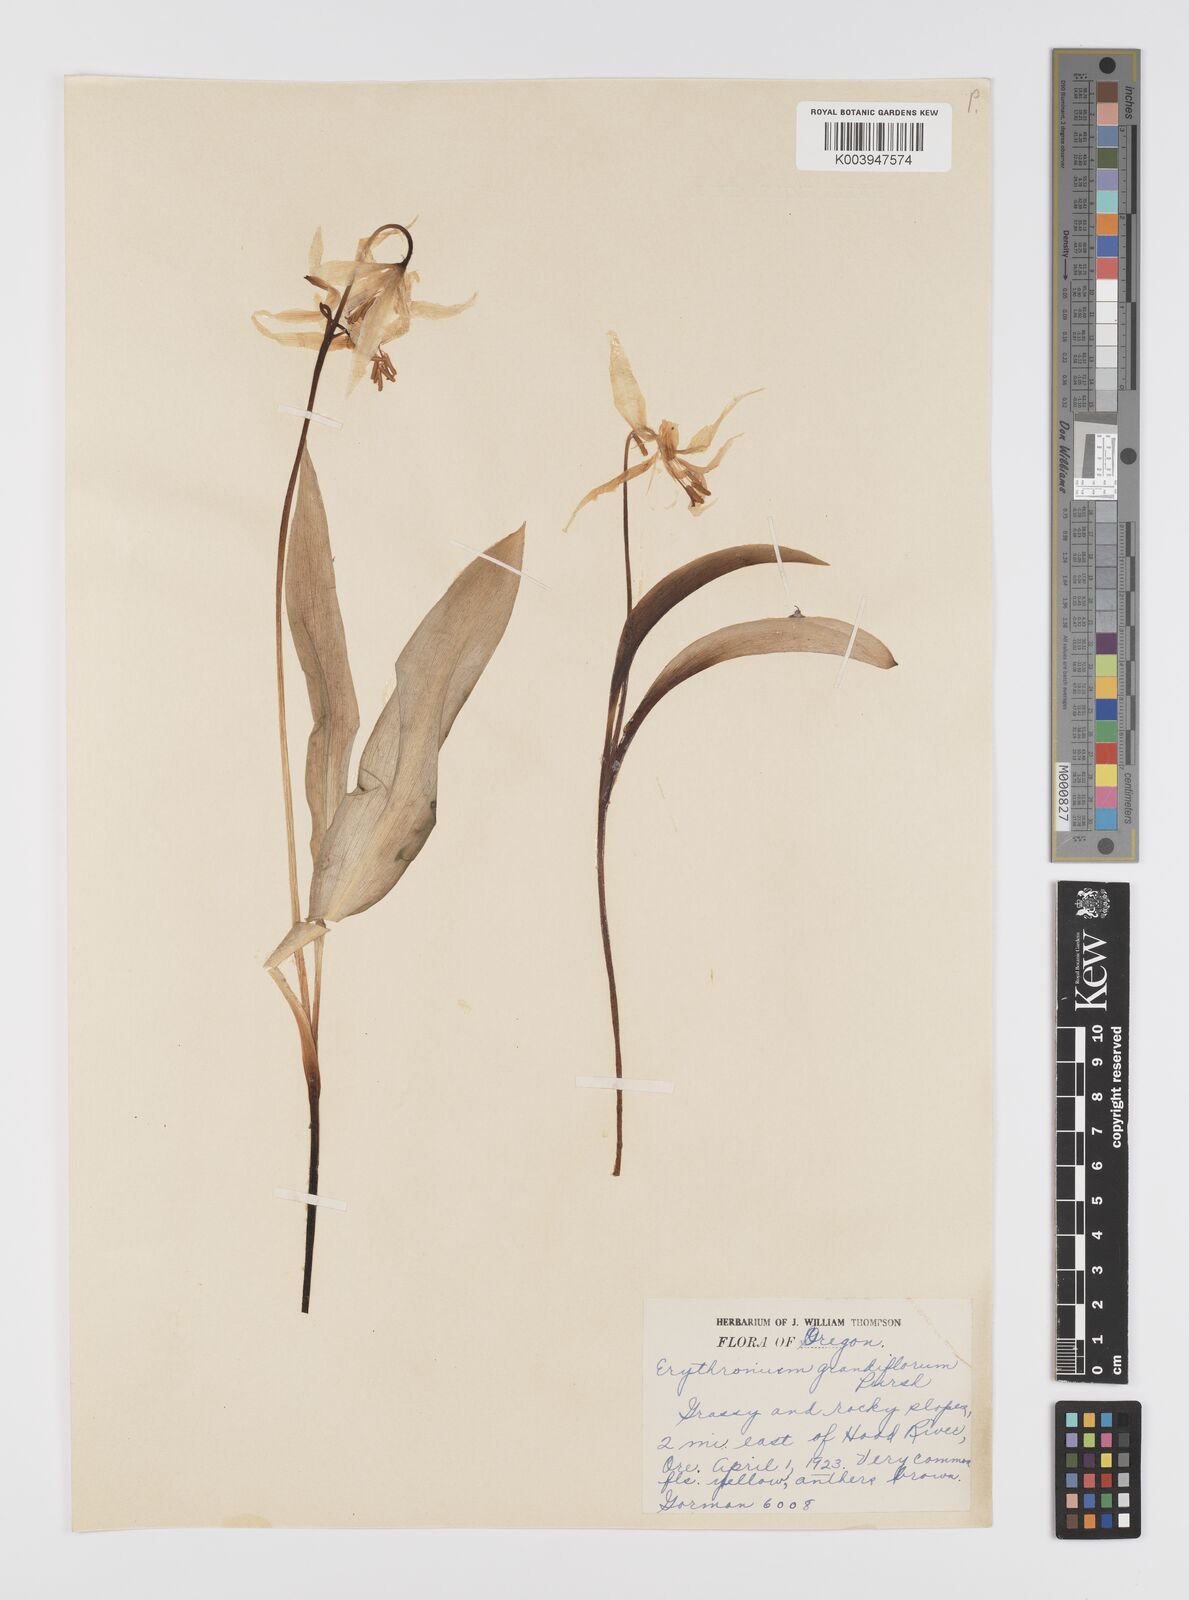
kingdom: Plantae
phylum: Tracheophyta
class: Liliopsida
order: Liliales
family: Liliaceae
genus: Erythronium
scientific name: Erythronium grandiflorum
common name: Avalanche-lily
